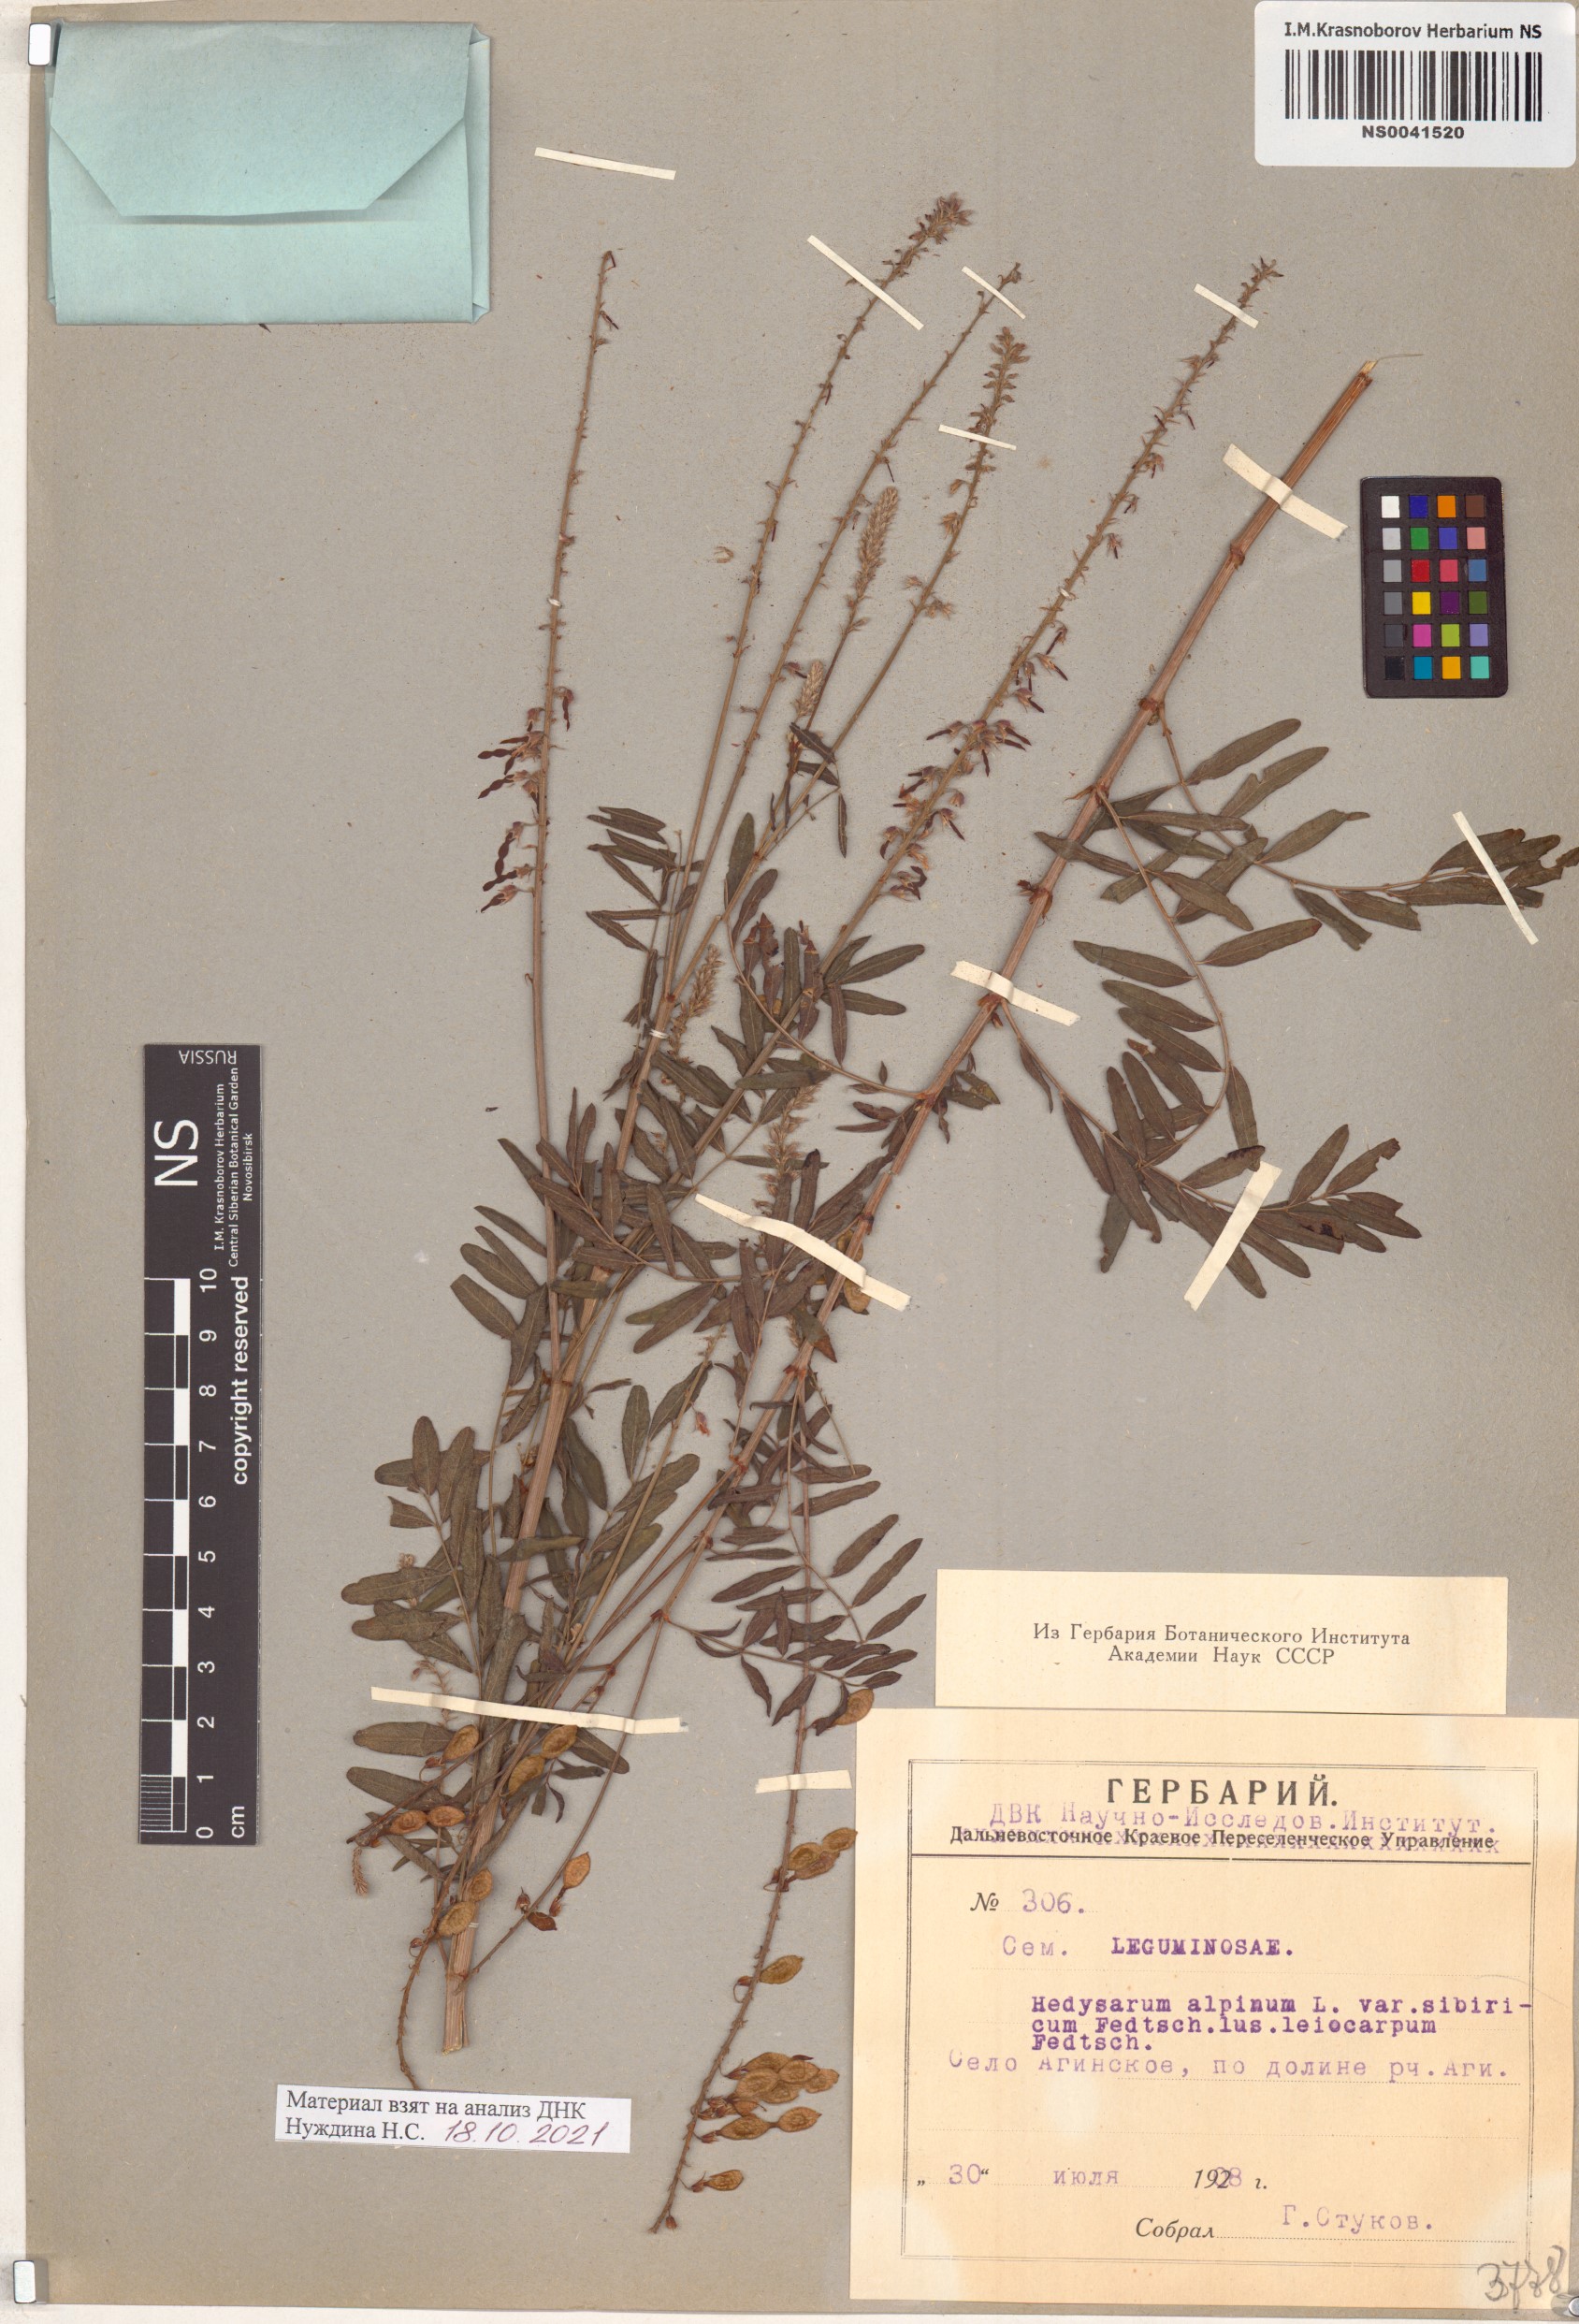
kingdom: Plantae
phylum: Tracheophyta
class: Magnoliopsida
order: Fabales
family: Fabaceae
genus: Hedysarum
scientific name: Hedysarum alpinum
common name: Alpine sweet-vetch
